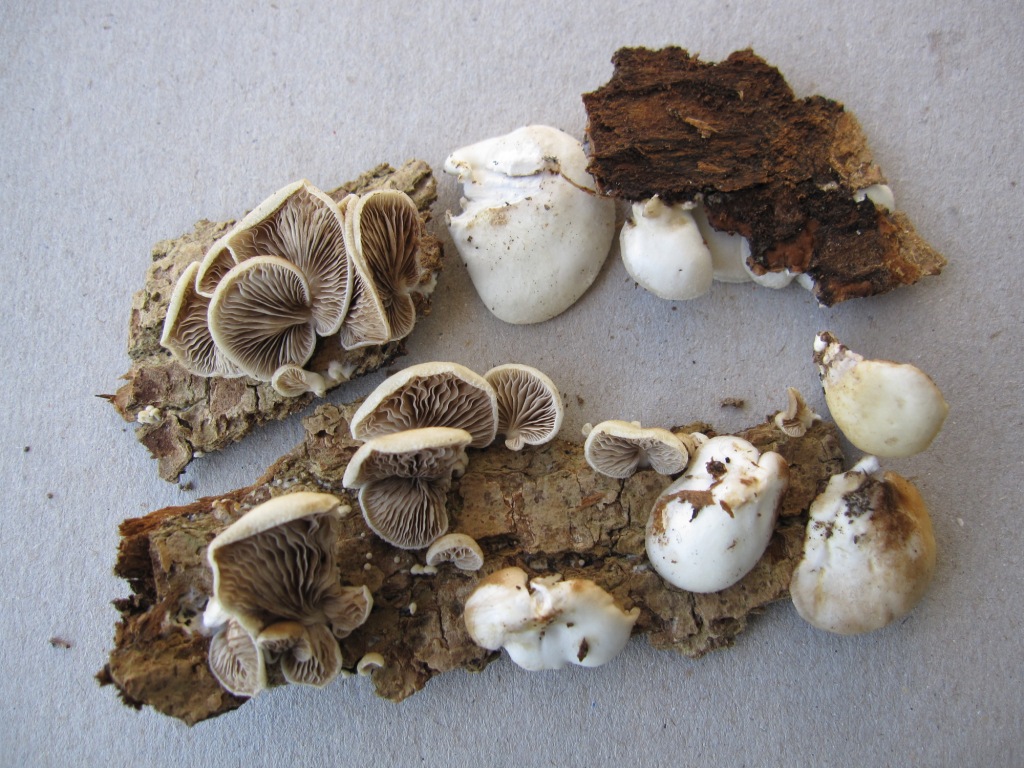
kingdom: Fungi
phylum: Basidiomycota
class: Agaricomycetes
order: Agaricales
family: Crepidotaceae
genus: Crepidotus
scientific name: Crepidotus mollis
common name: blød muslingesvamp
